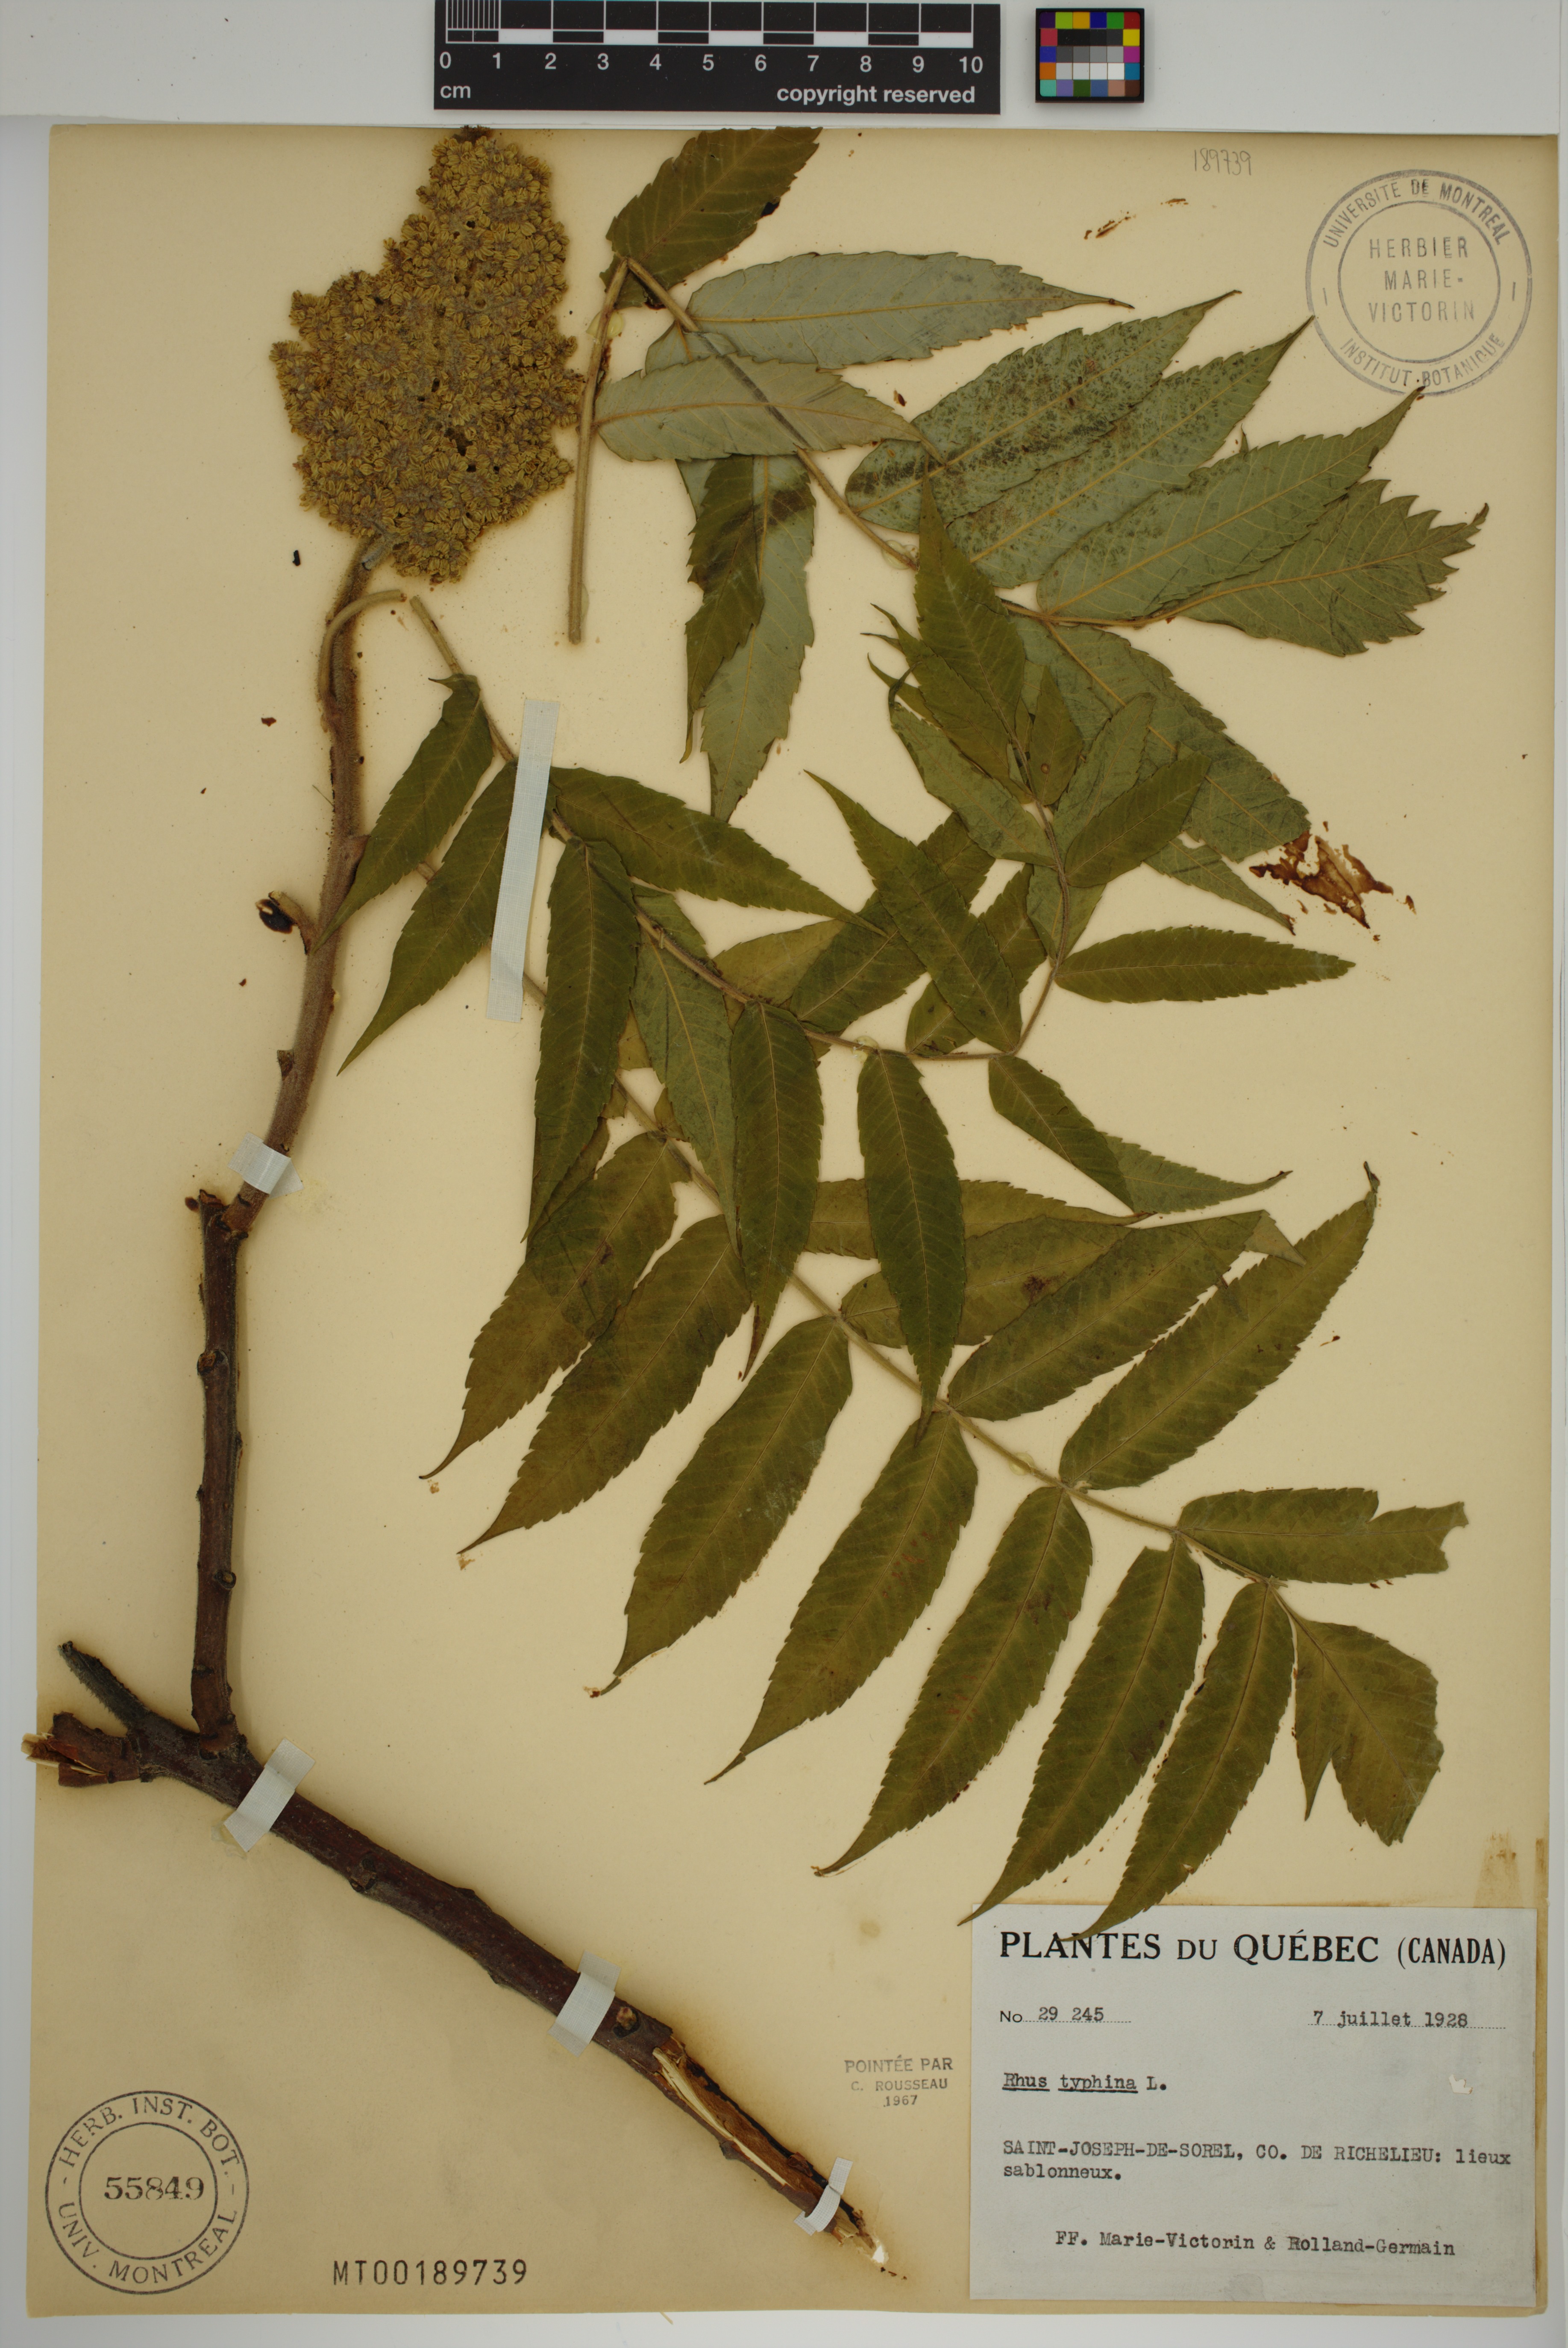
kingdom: Plantae
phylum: Tracheophyta
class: Magnoliopsida
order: Sapindales
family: Anacardiaceae
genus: Rhus
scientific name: Rhus typhina
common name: Staghorn sumac
